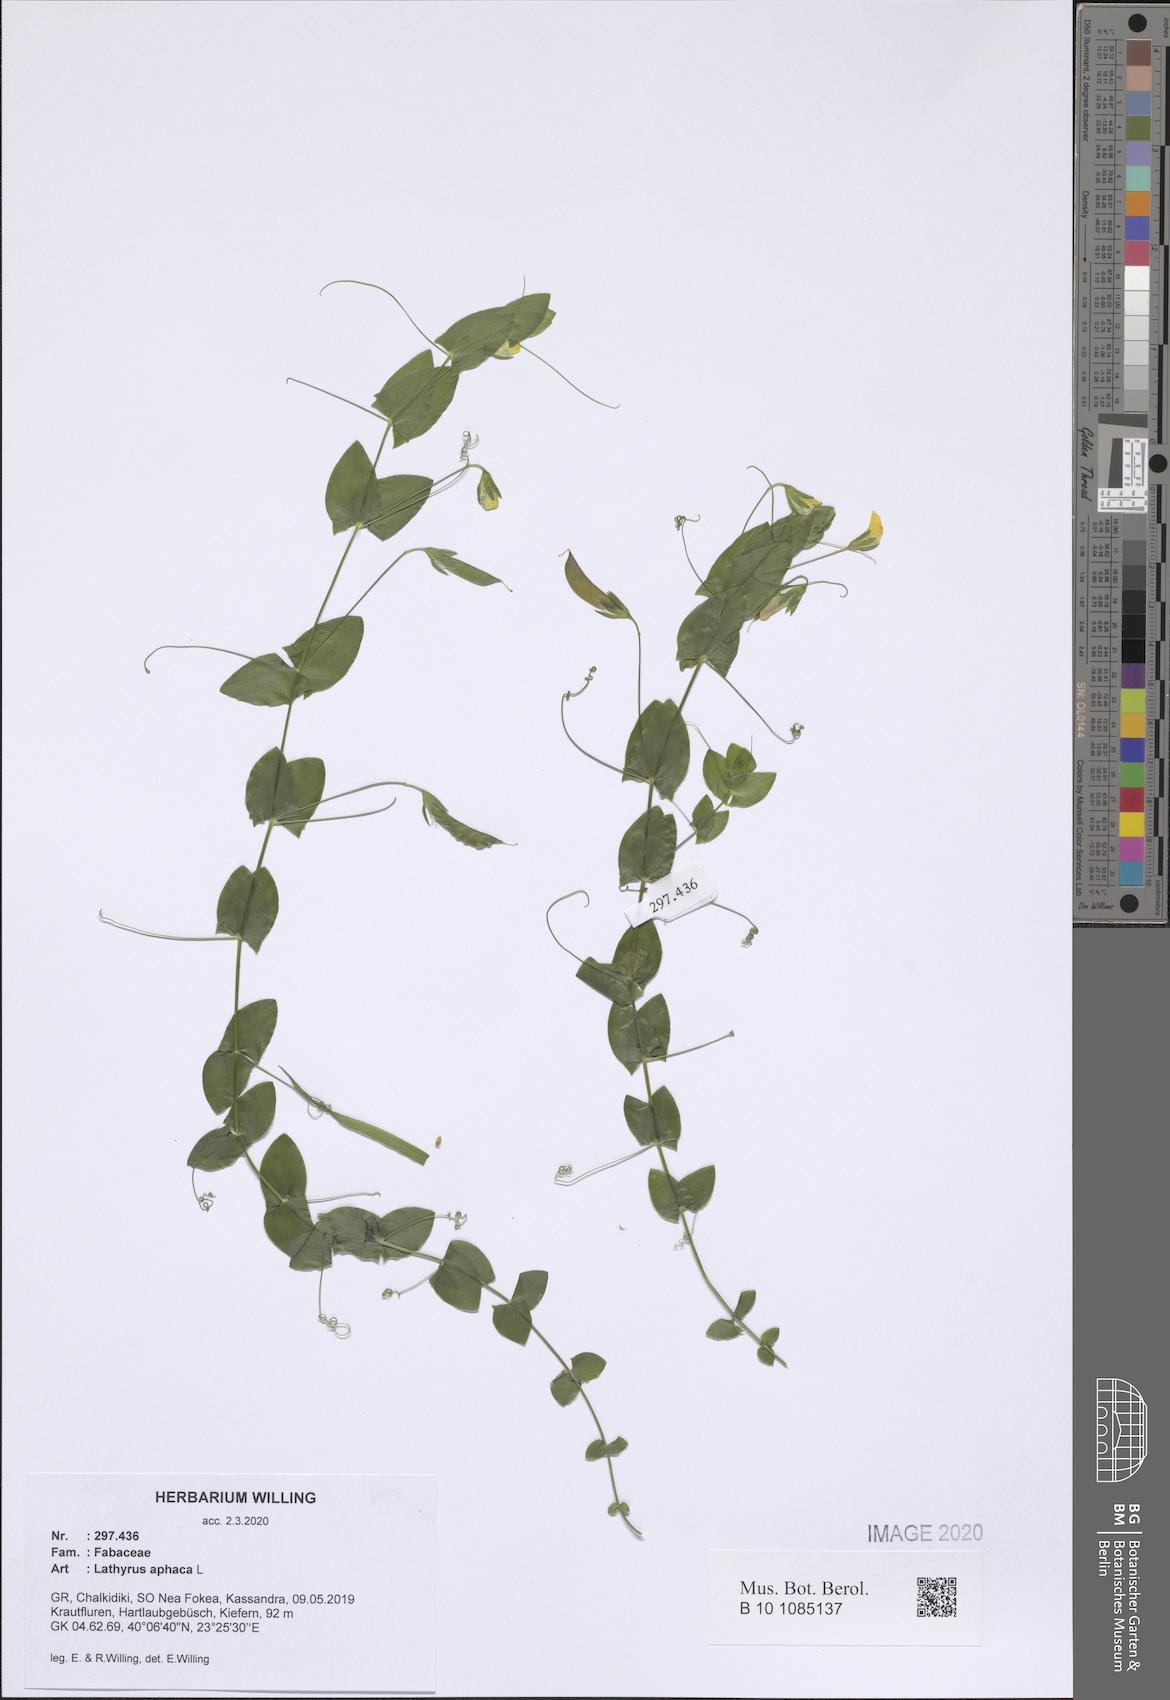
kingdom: Plantae
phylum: Tracheophyta
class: Magnoliopsida
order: Fabales
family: Fabaceae
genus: Lathyrus
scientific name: Lathyrus aphaca
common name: Yellow vetchling
